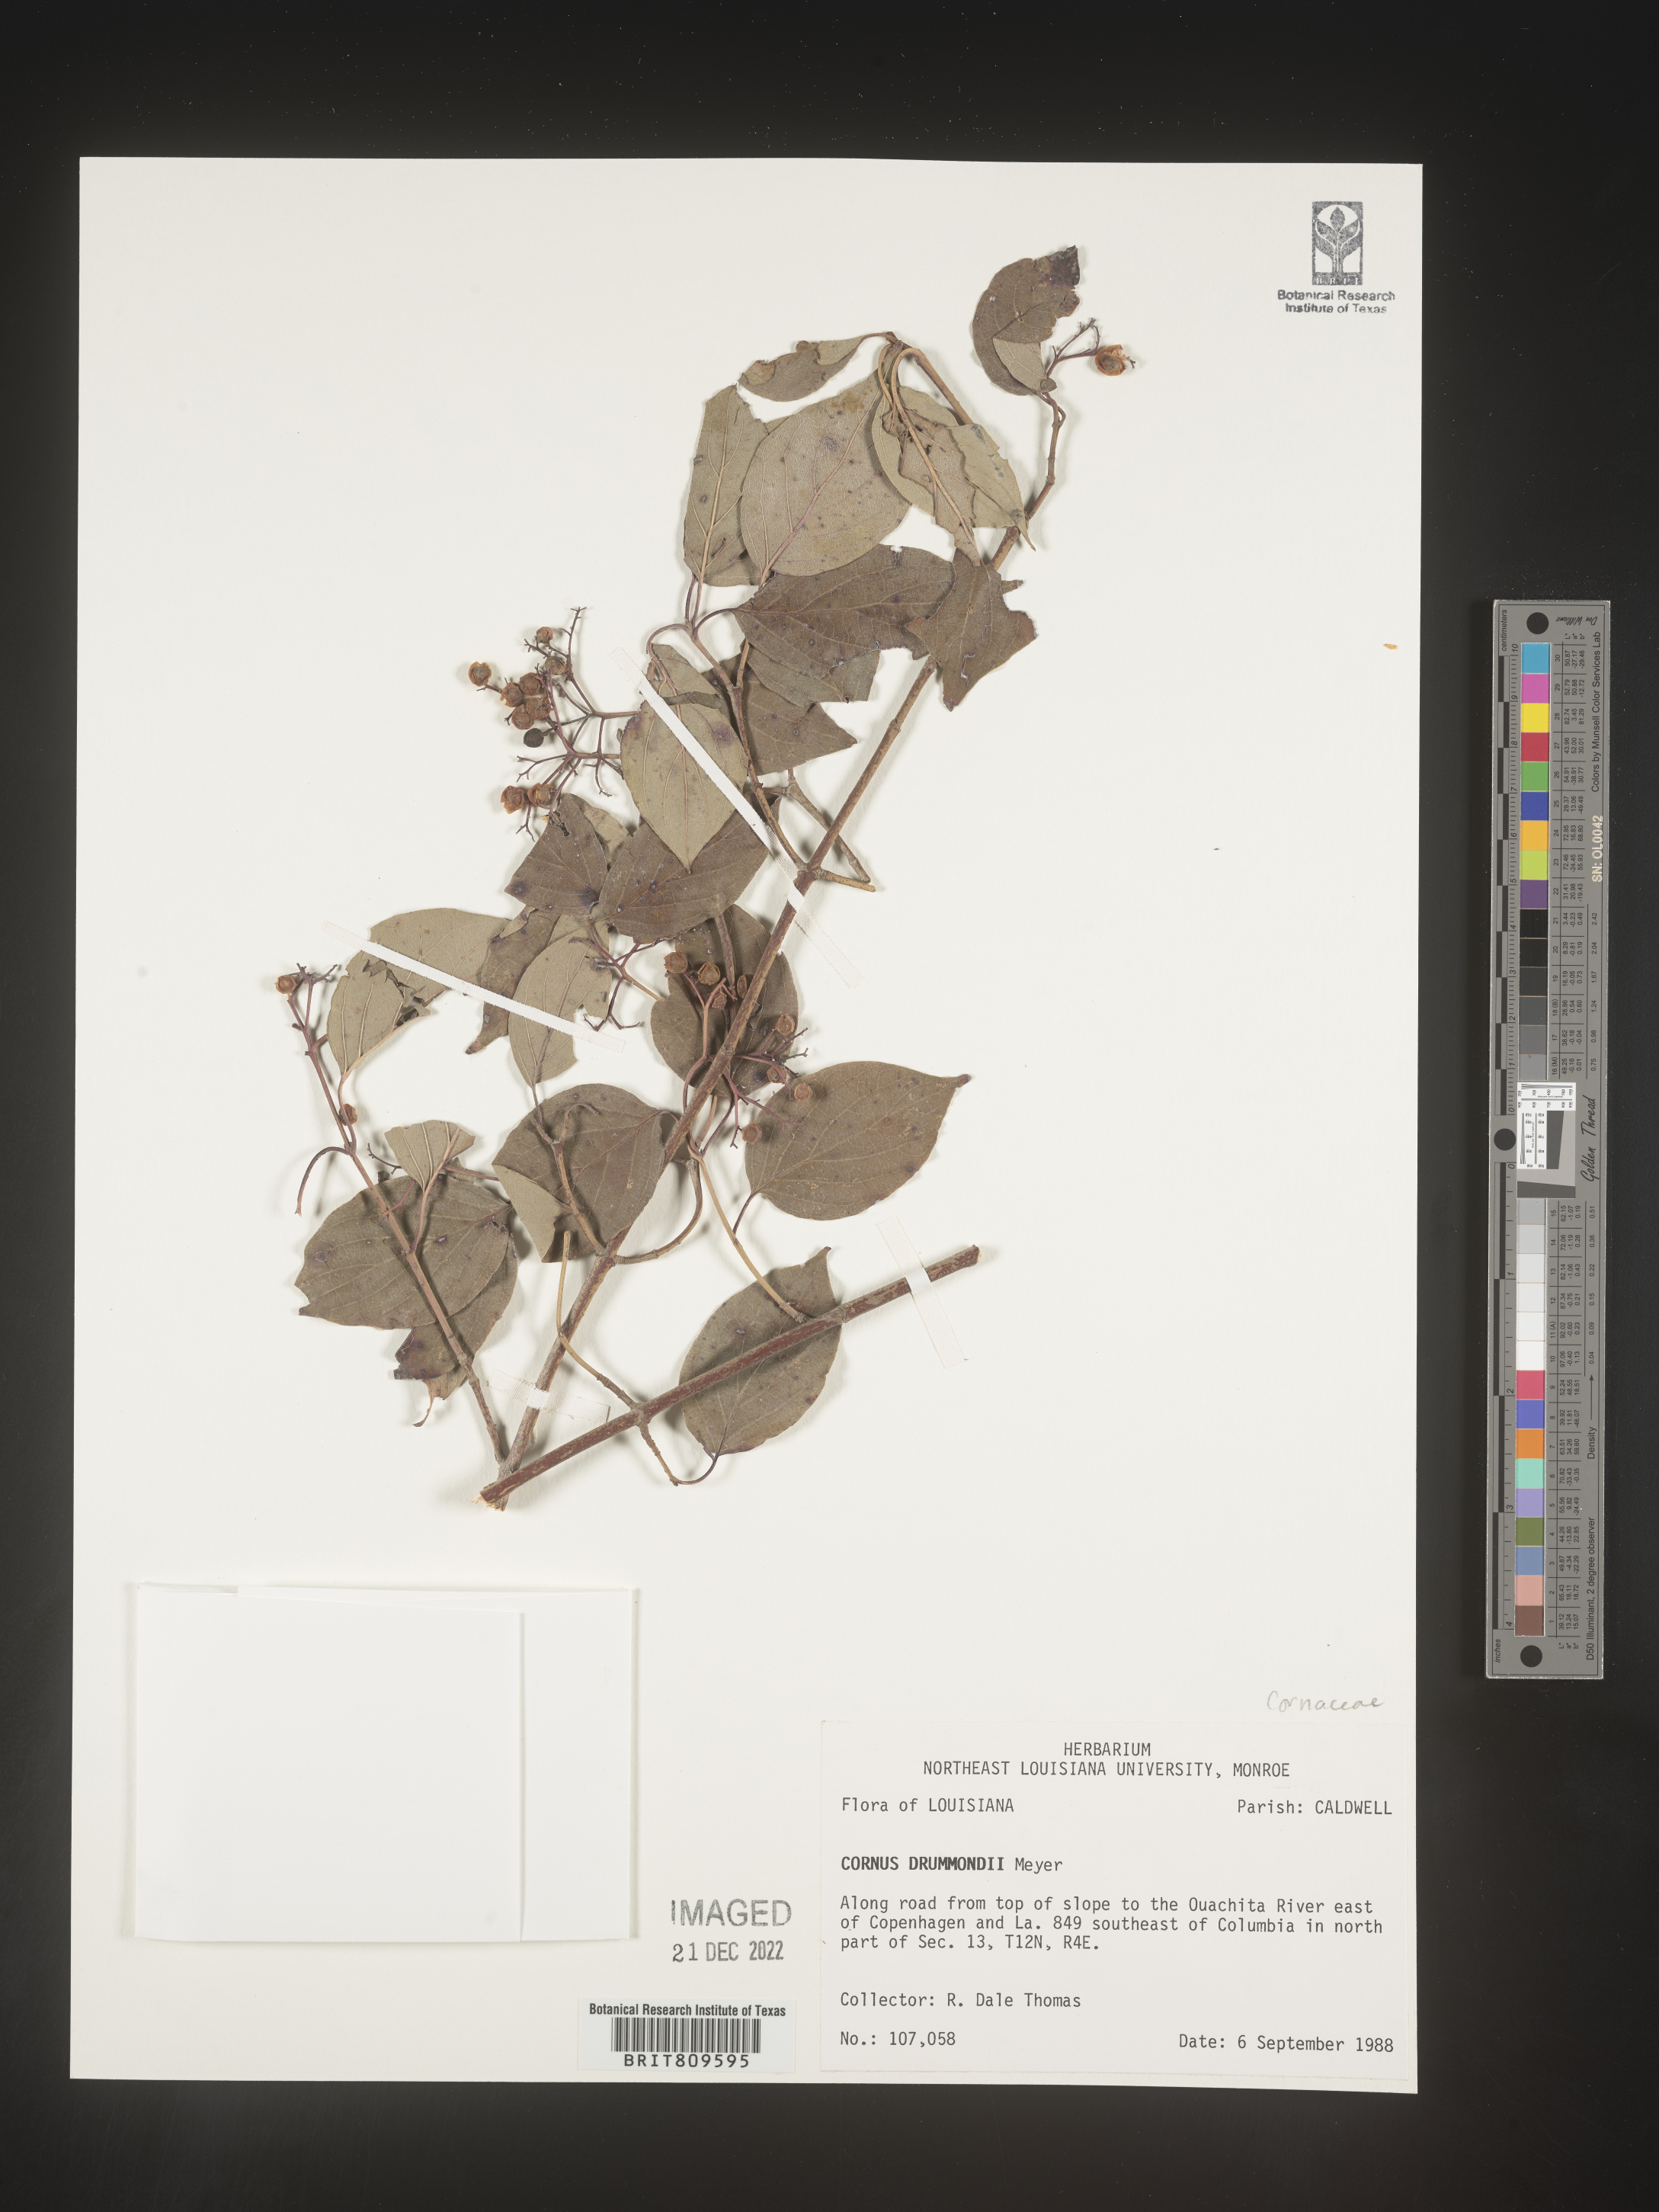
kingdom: Plantae
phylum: Tracheophyta
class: Magnoliopsida
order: Cornales
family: Cornaceae
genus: Cornus
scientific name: Cornus drummondii
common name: Rough-leaf dogwood
